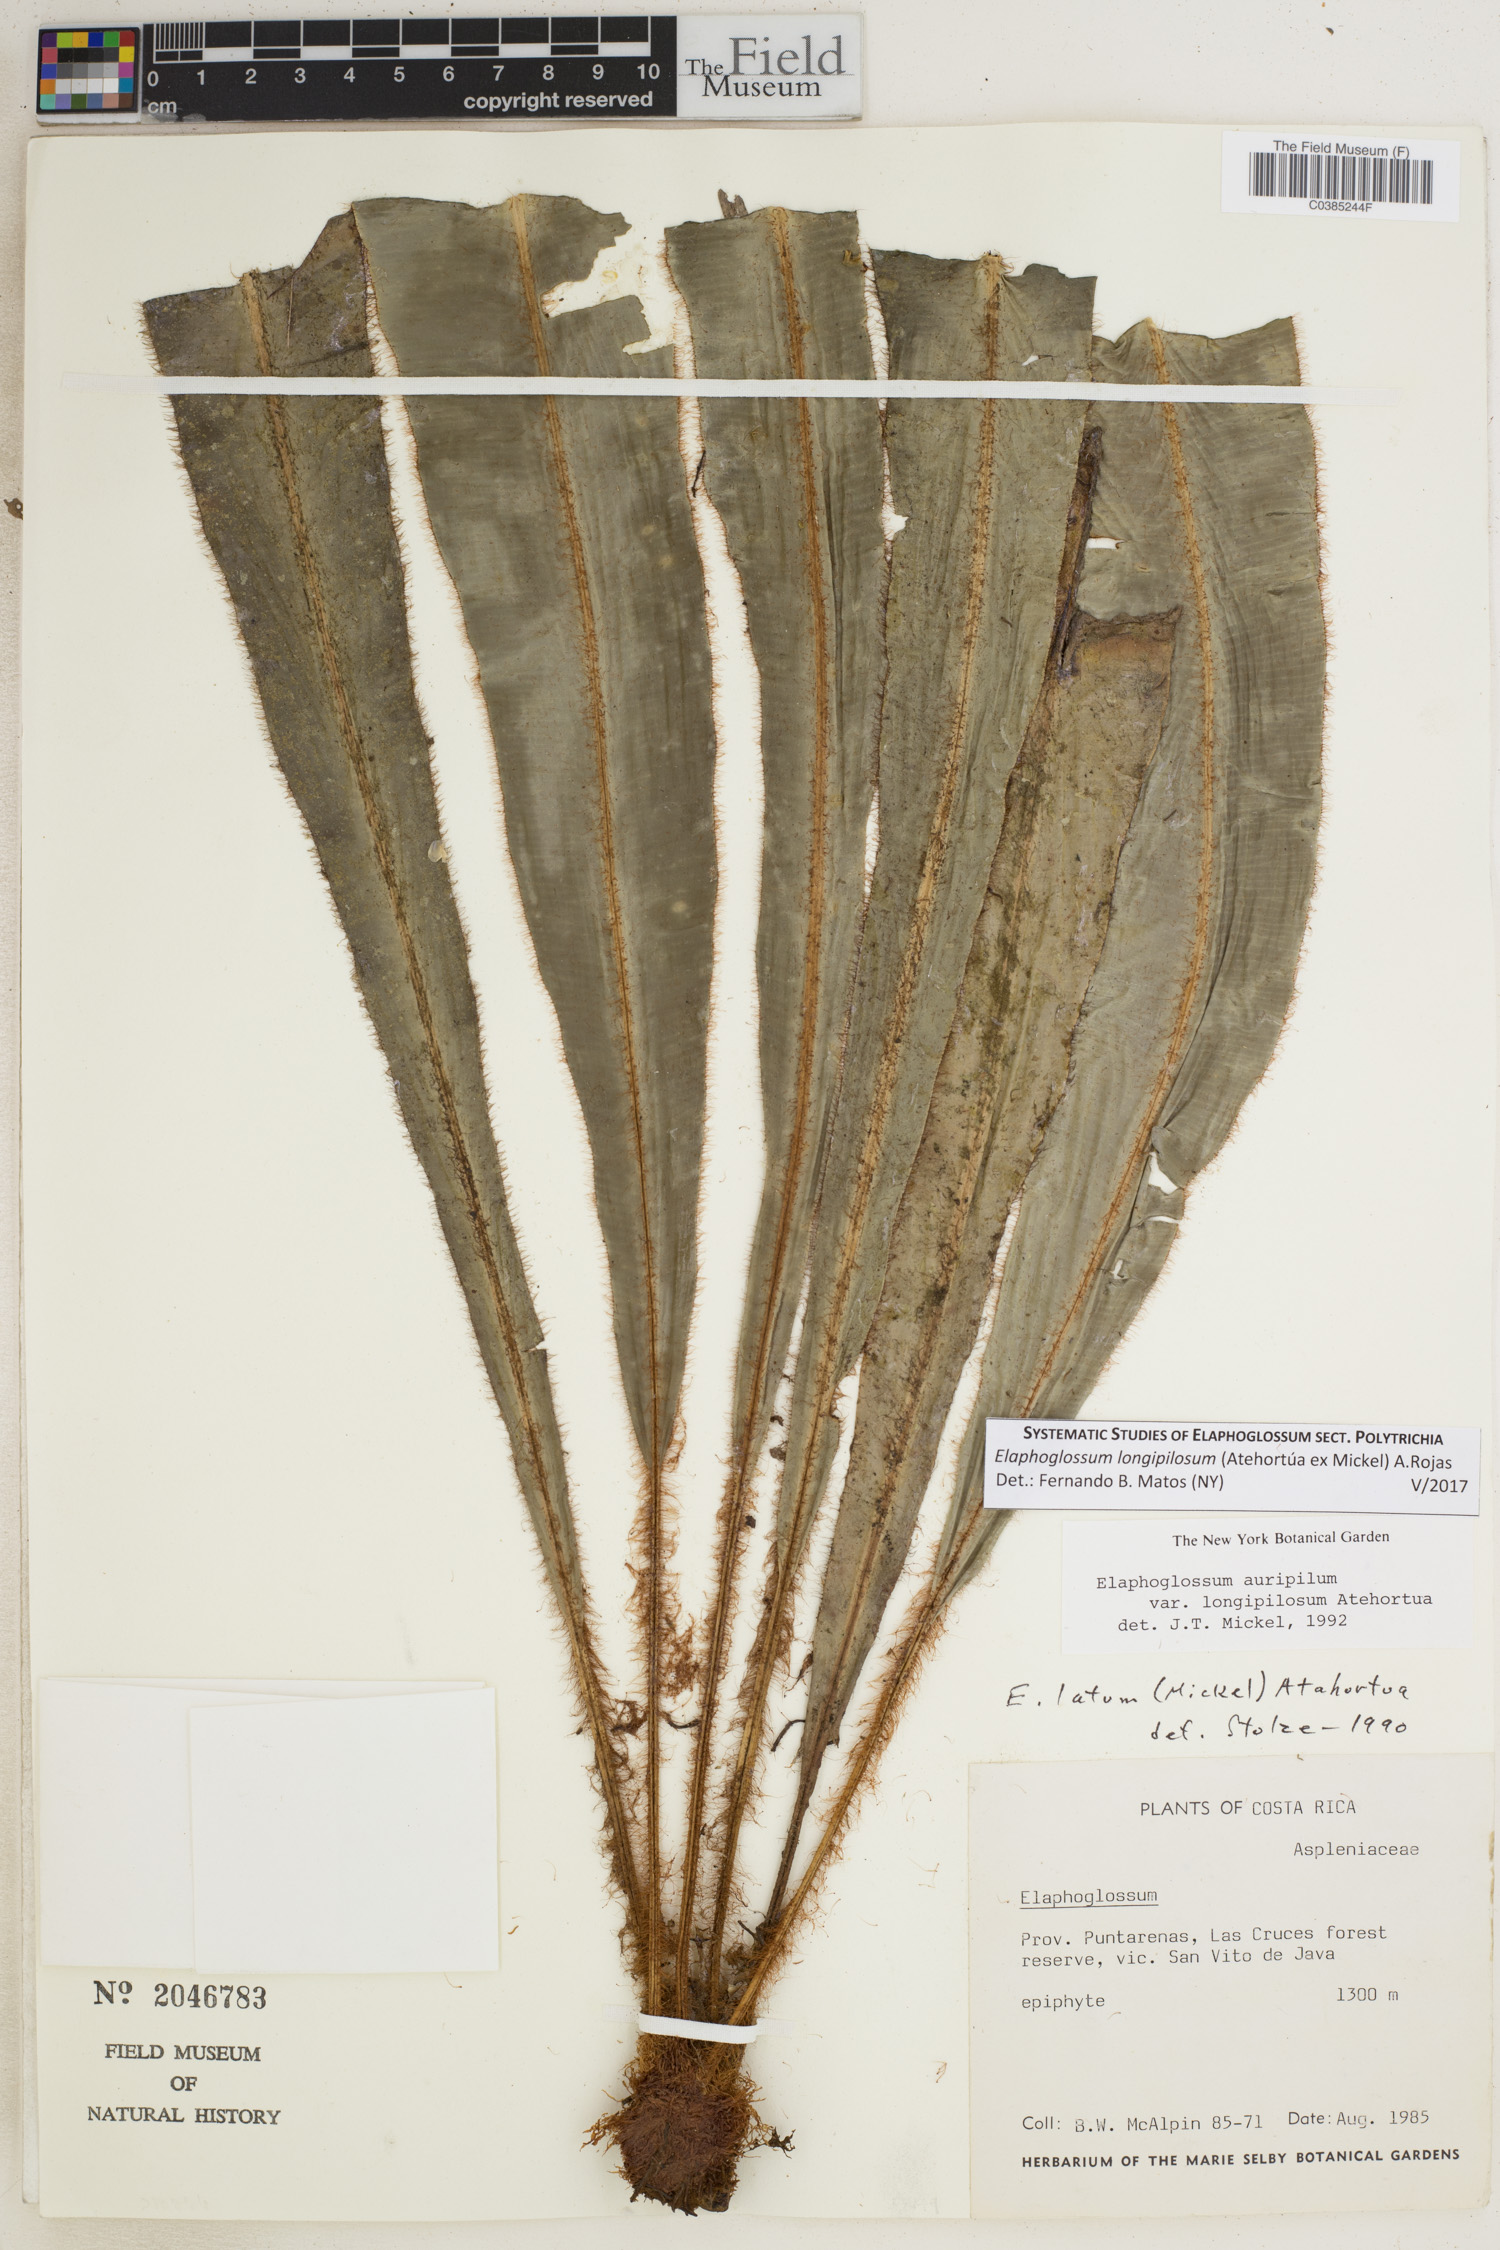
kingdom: Plantae
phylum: Tracheophyta
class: Polypodiopsida
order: Polypodiales
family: Dryopteridaceae
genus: Elaphoglossum
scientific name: Elaphoglossum longipilosum
